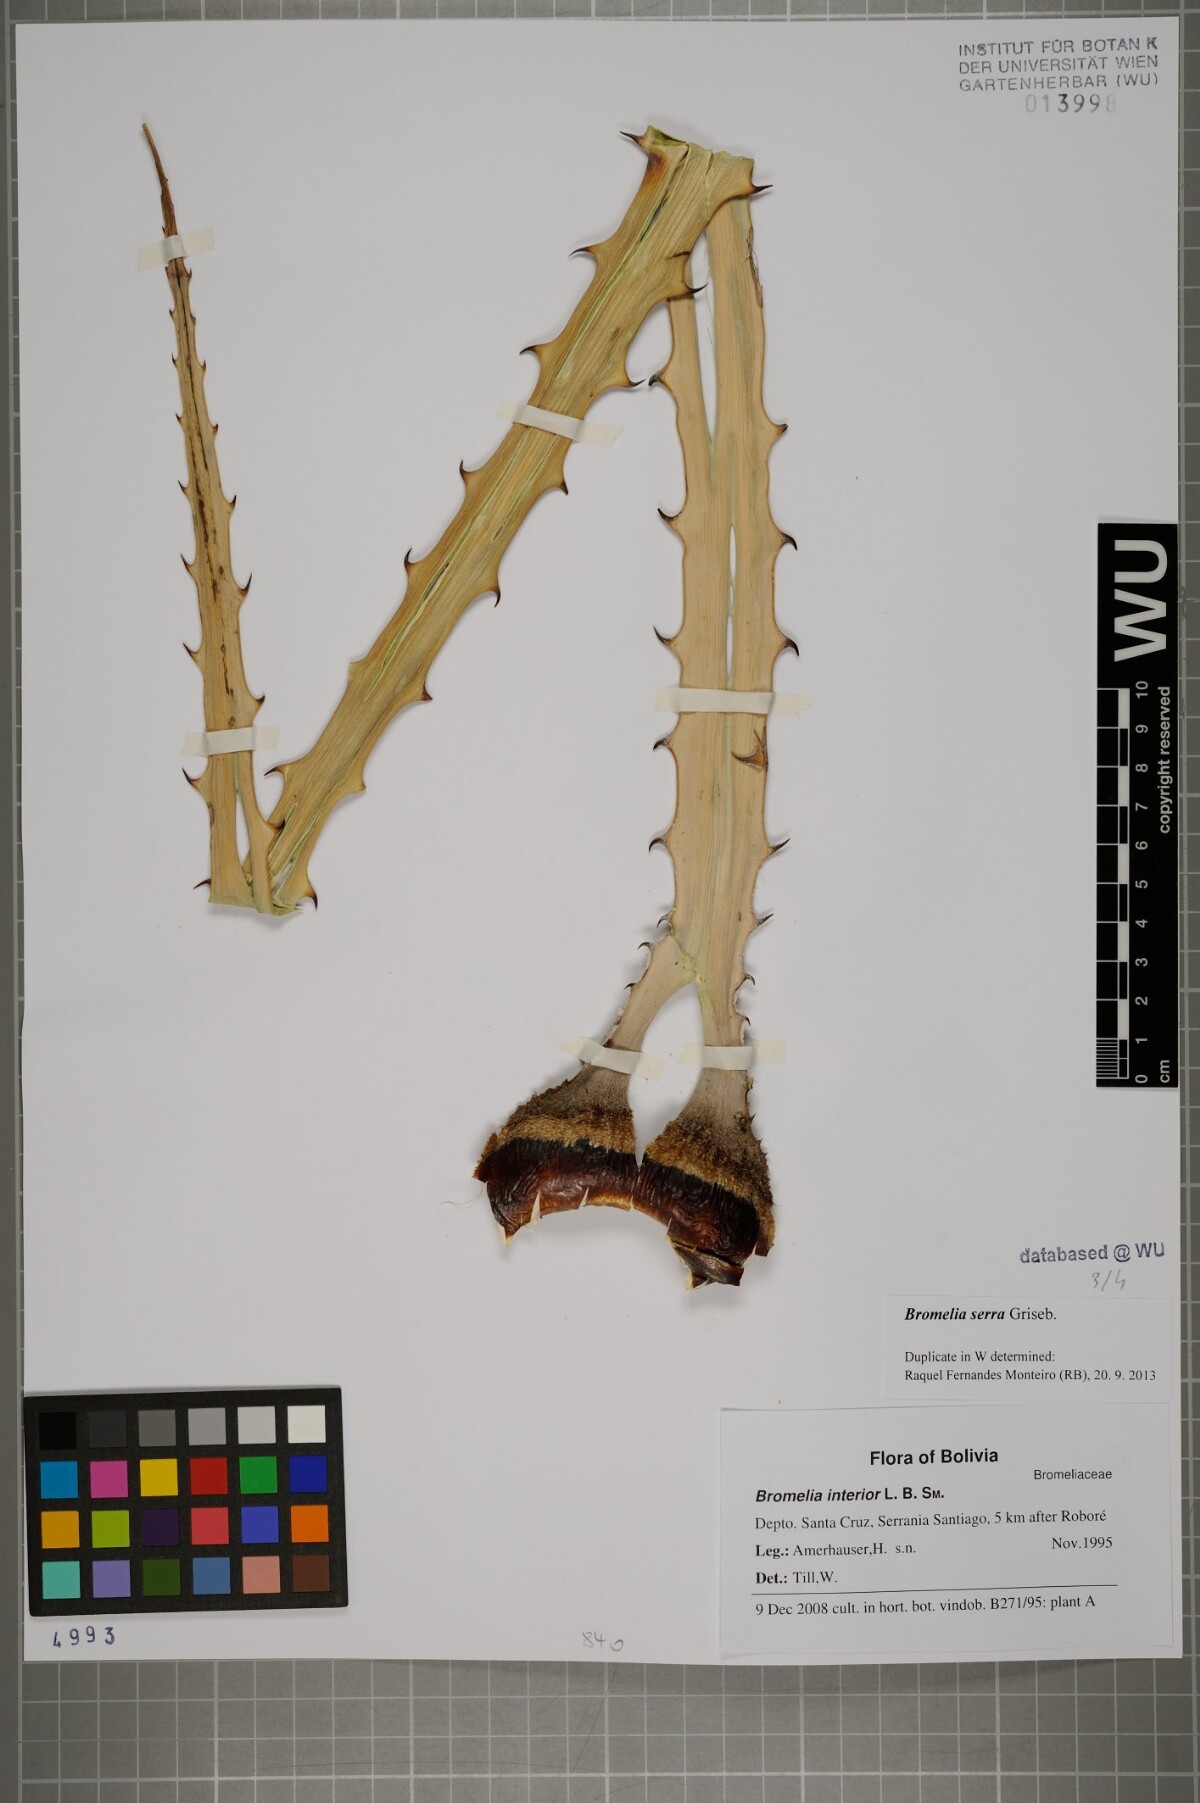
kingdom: Plantae
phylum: Tracheophyta
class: Liliopsida
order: Poales
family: Bromeliaceae
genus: Bromelia
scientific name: Bromelia serra
